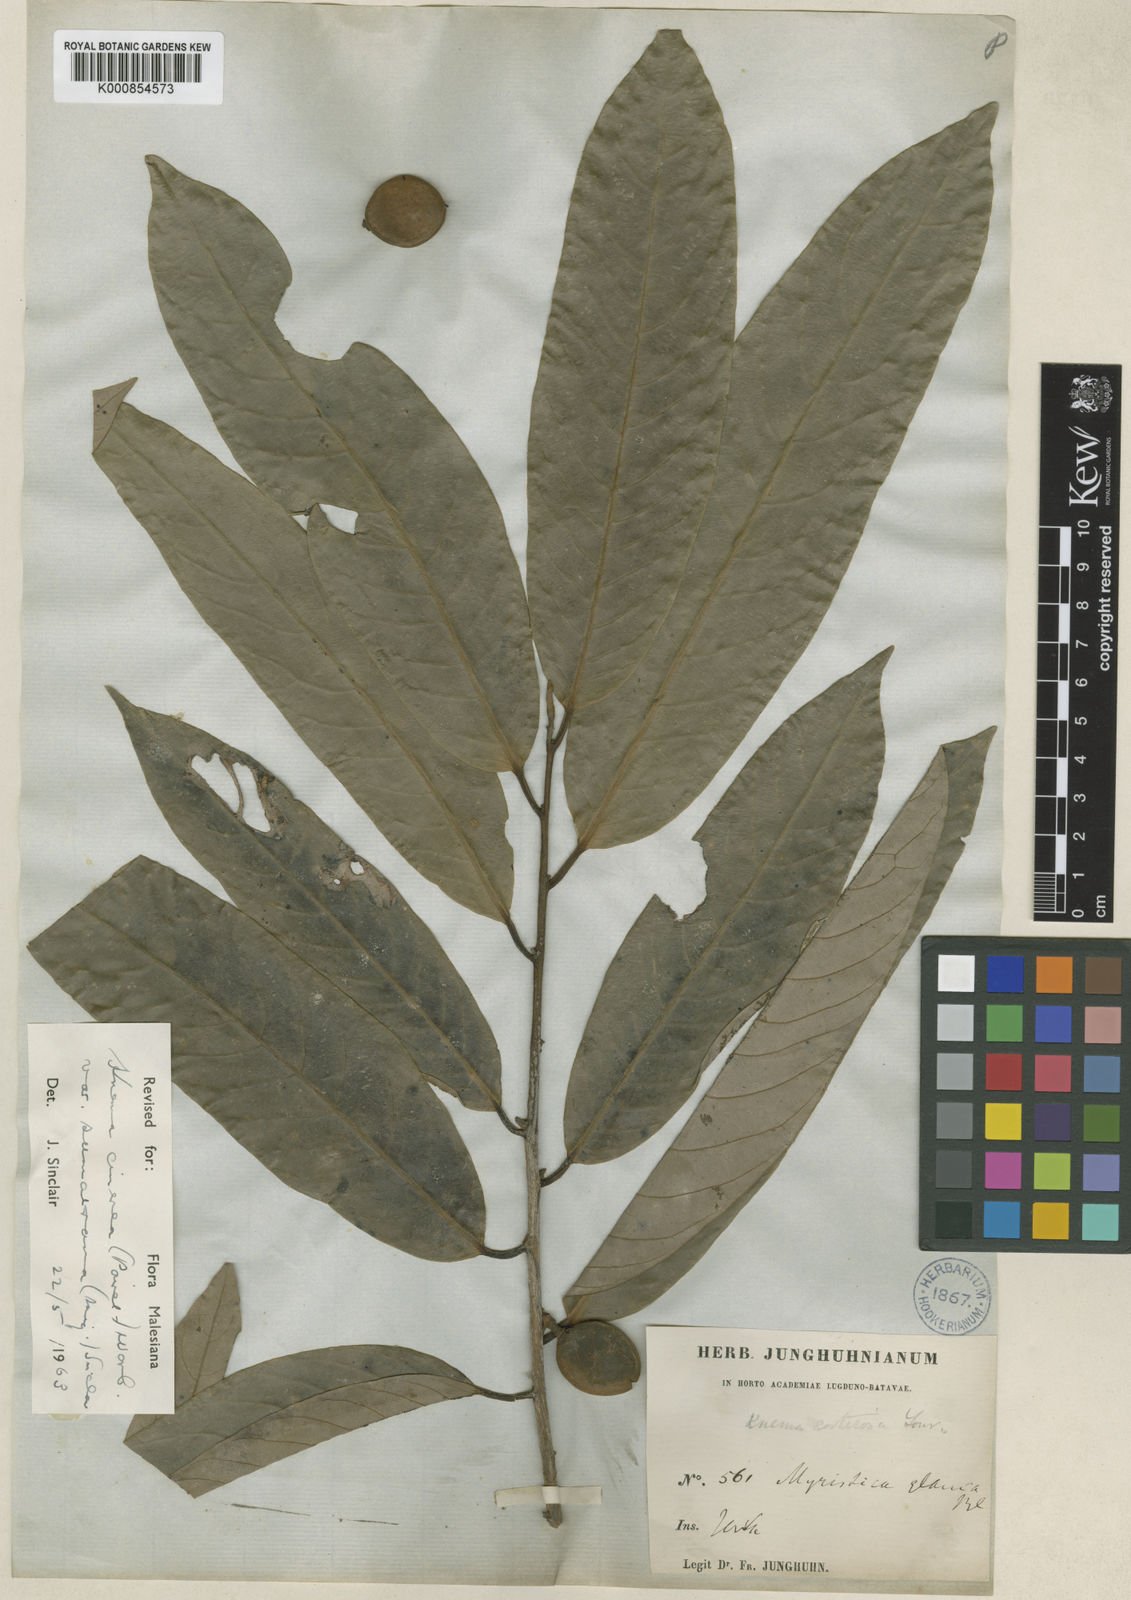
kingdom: Plantae
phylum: Tracheophyta
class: Magnoliopsida
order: Magnoliales
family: Myristicaceae
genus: Knema
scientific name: Knema glaucescens
